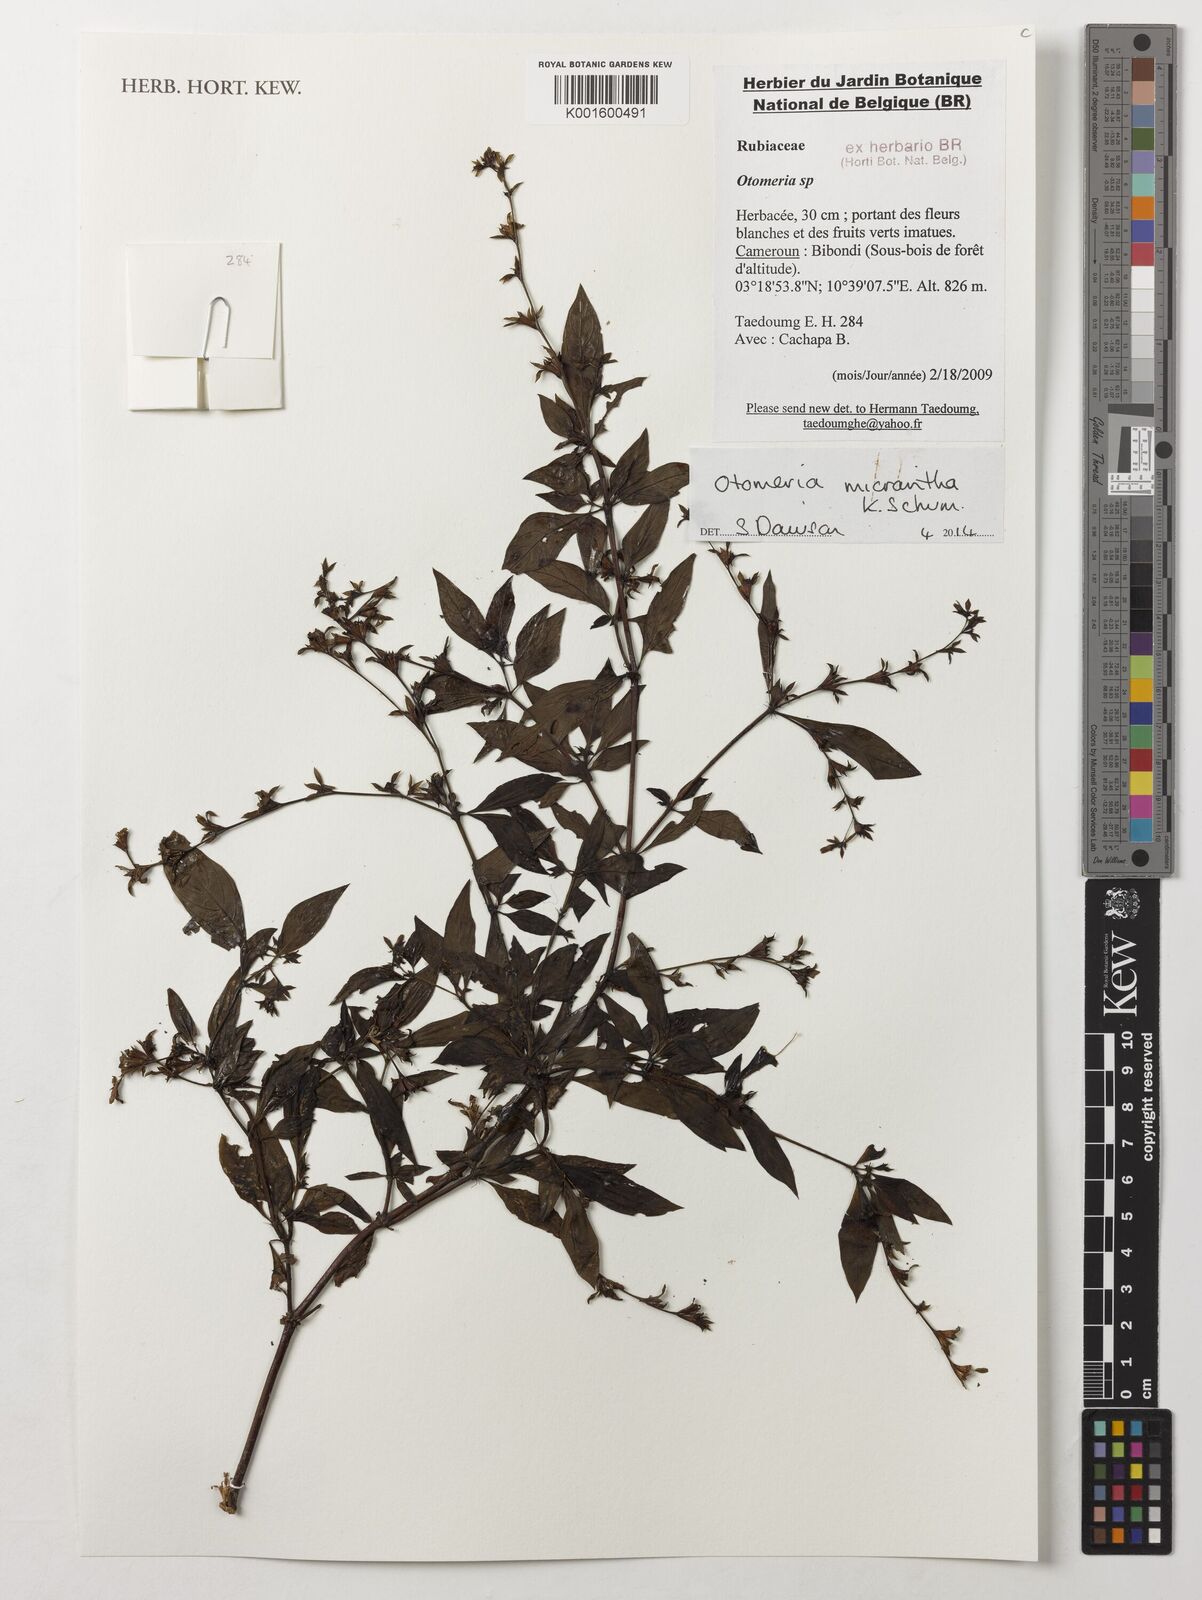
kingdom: Plantae
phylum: Tracheophyta
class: Liliopsida
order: Asparagales
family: Orchidaceae
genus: Octomeria
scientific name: Octomeria micrantha
